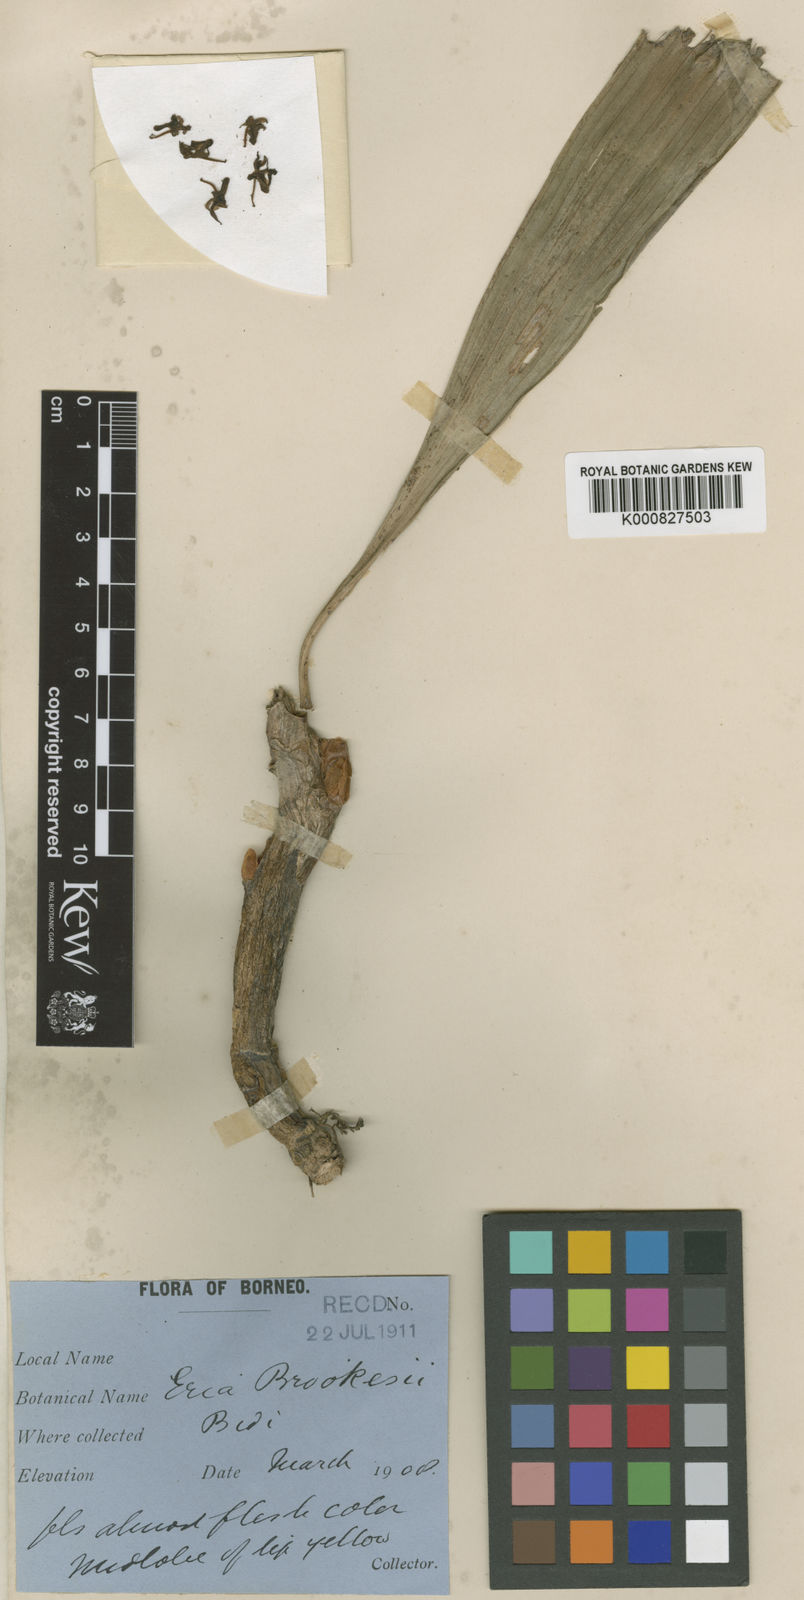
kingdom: Plantae
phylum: Tracheophyta
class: Liliopsida
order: Asparagales
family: Orchidaceae
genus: Pinalia
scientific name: Pinalia saccifera
